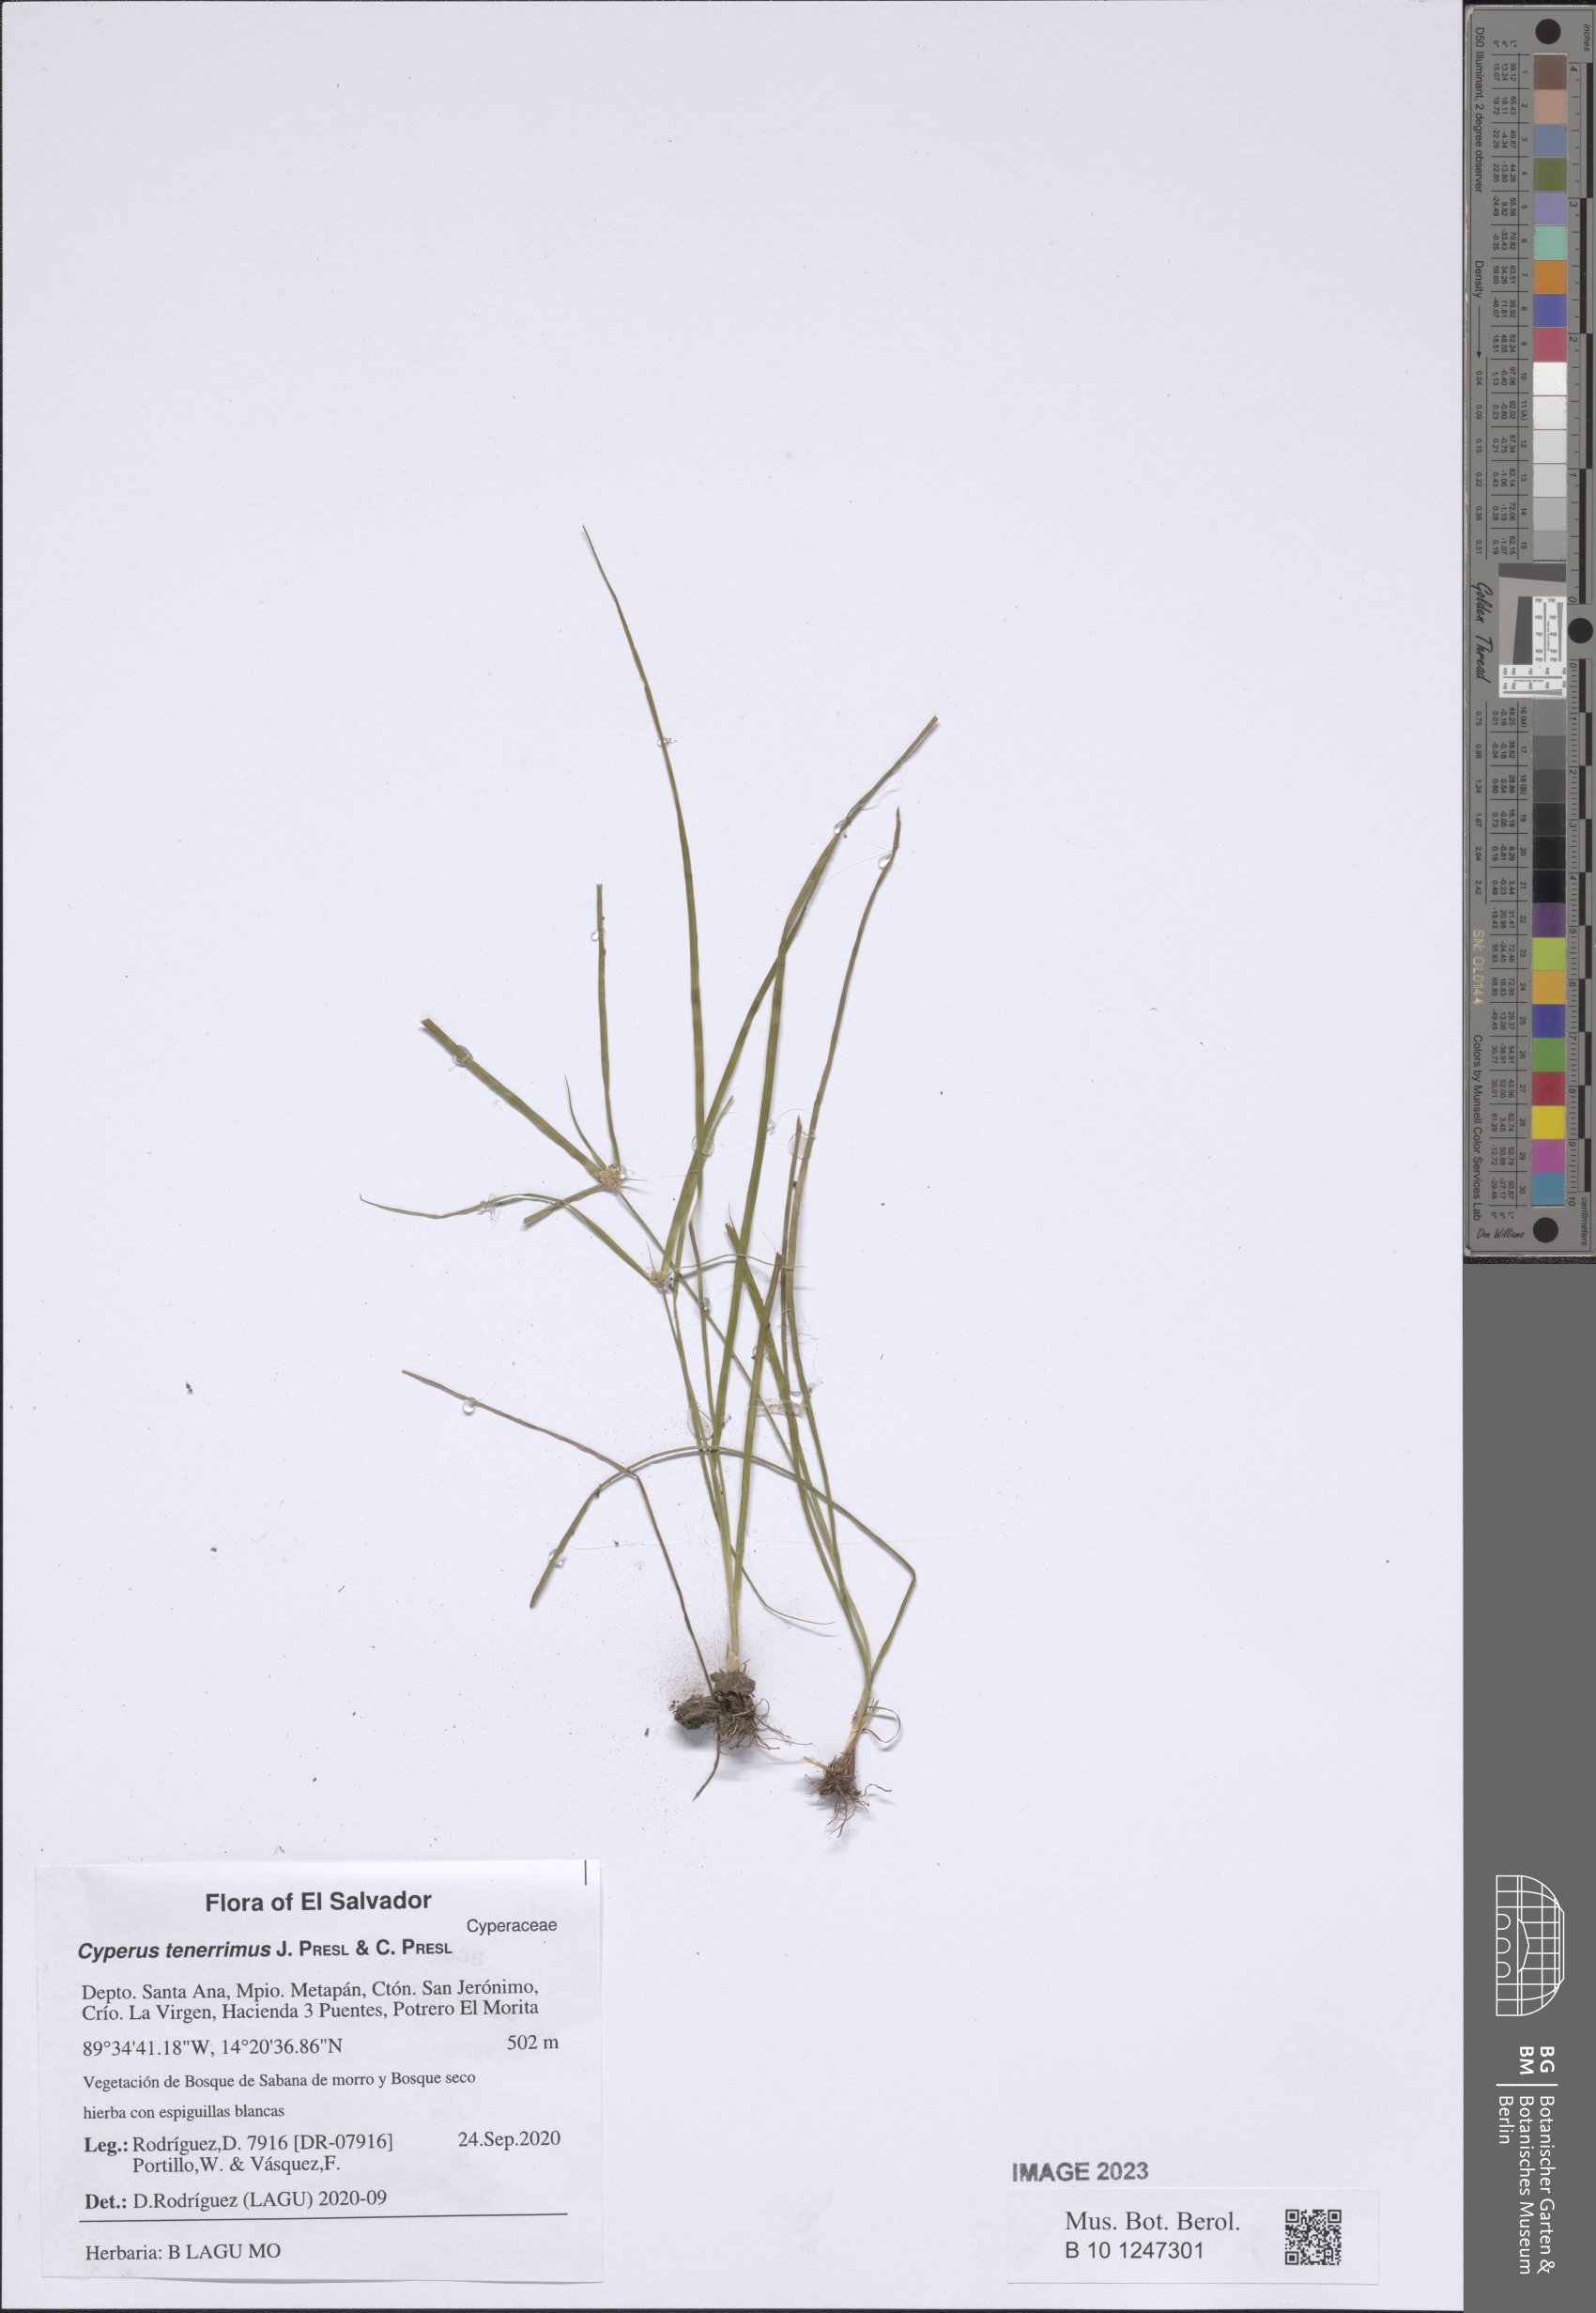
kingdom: Plantae
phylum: Tracheophyta
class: Liliopsida
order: Poales
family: Cyperaceae
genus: Cyperus
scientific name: Cyperus tenerrimus
